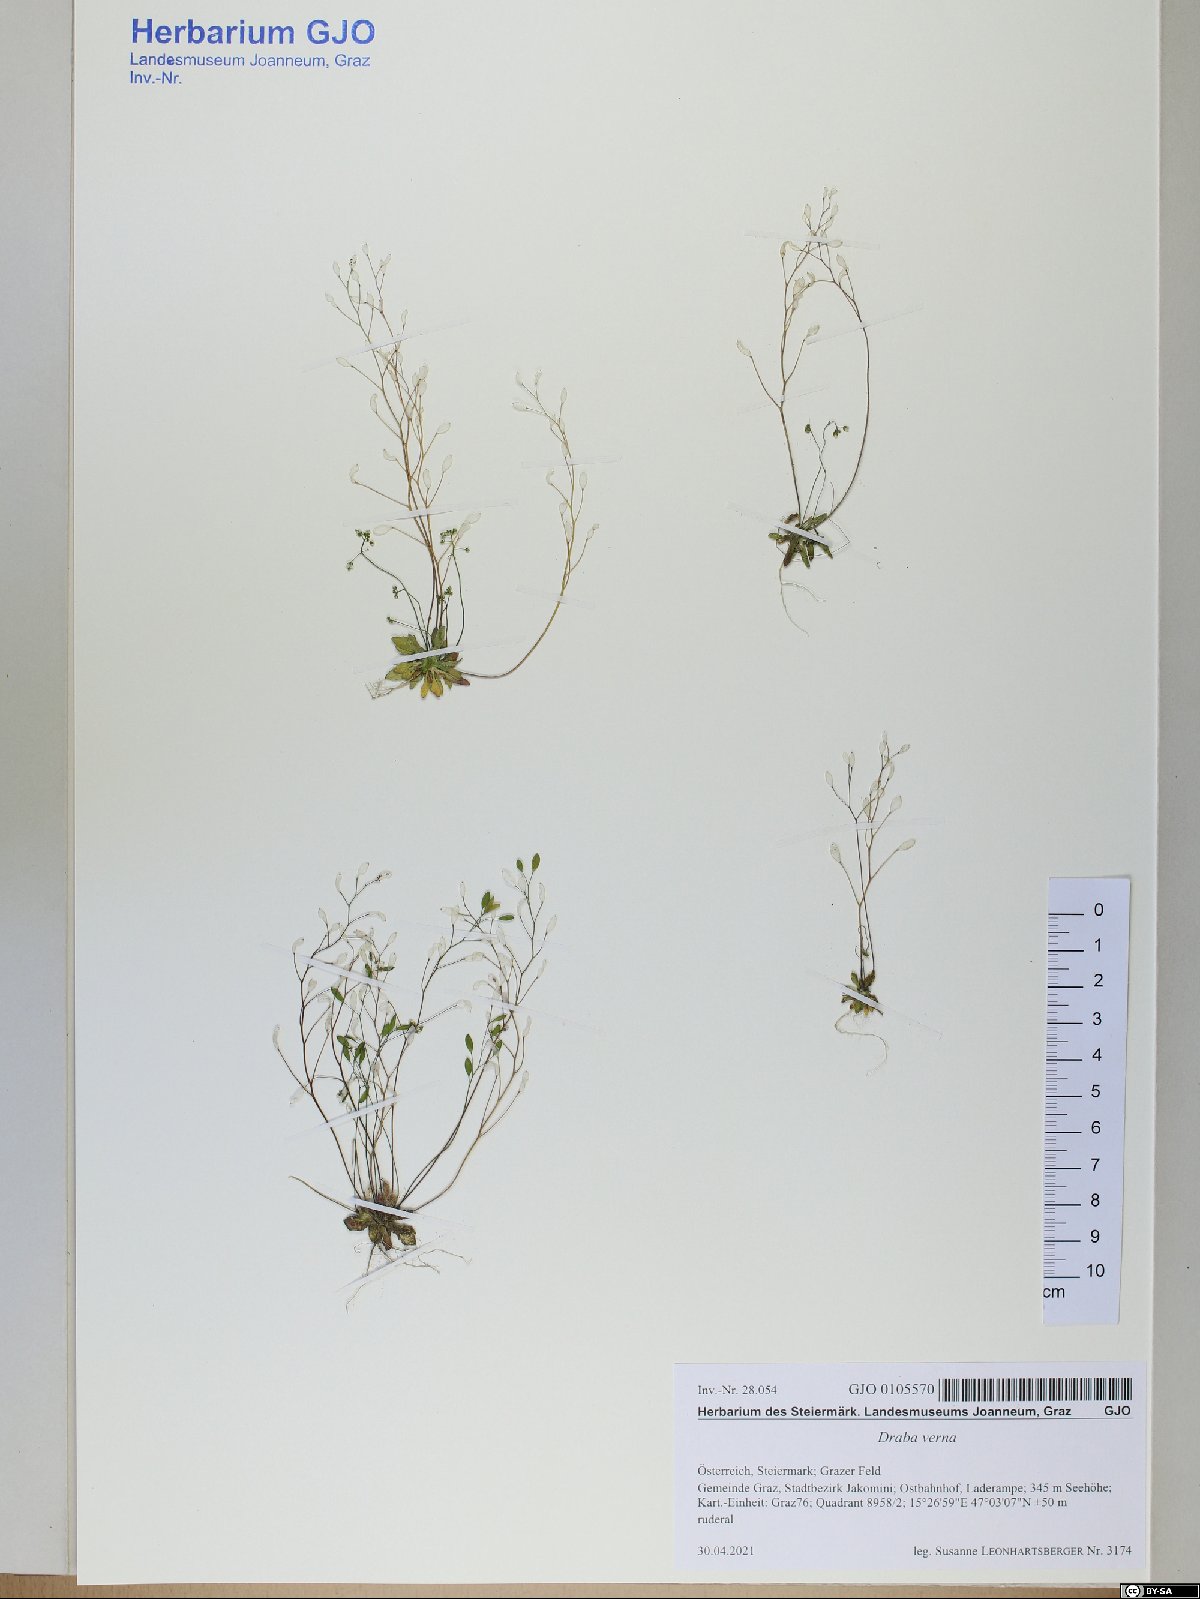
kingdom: Plantae
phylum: Tracheophyta
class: Magnoliopsida
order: Brassicales
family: Brassicaceae
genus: Draba
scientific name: Draba verna
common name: Spring draba
